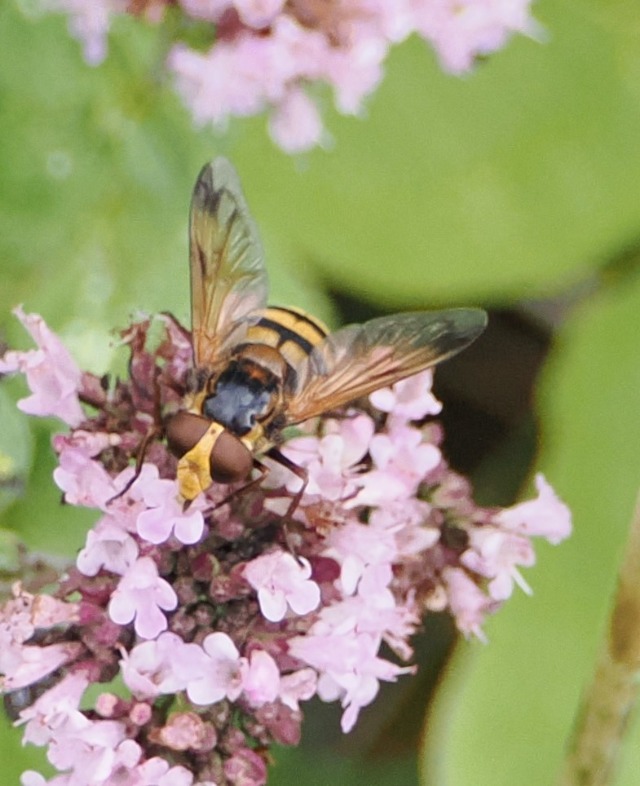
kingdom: Animalia
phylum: Arthropoda
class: Insecta
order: Diptera
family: Syrphidae
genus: Volucella
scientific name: Volucella inanis
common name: Gul humlesvirreflue
